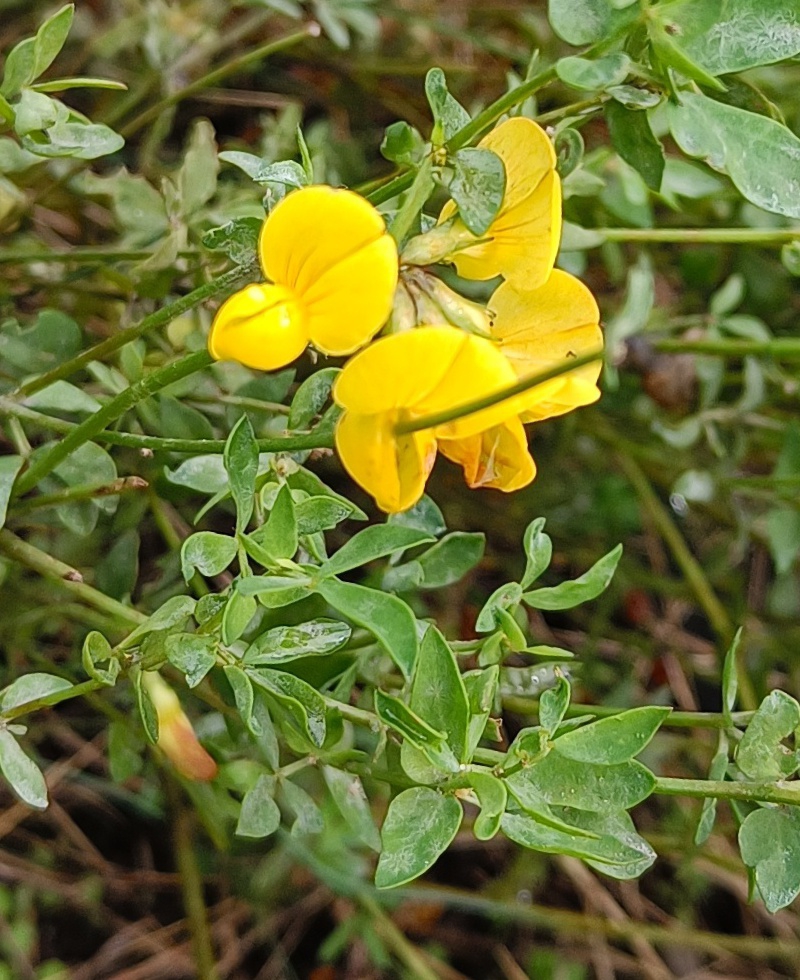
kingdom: Plantae
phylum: Tracheophyta
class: Magnoliopsida
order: Fabales
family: Fabaceae
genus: Lotus
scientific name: Lotus corniculatus
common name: Almindelig kællingetand
